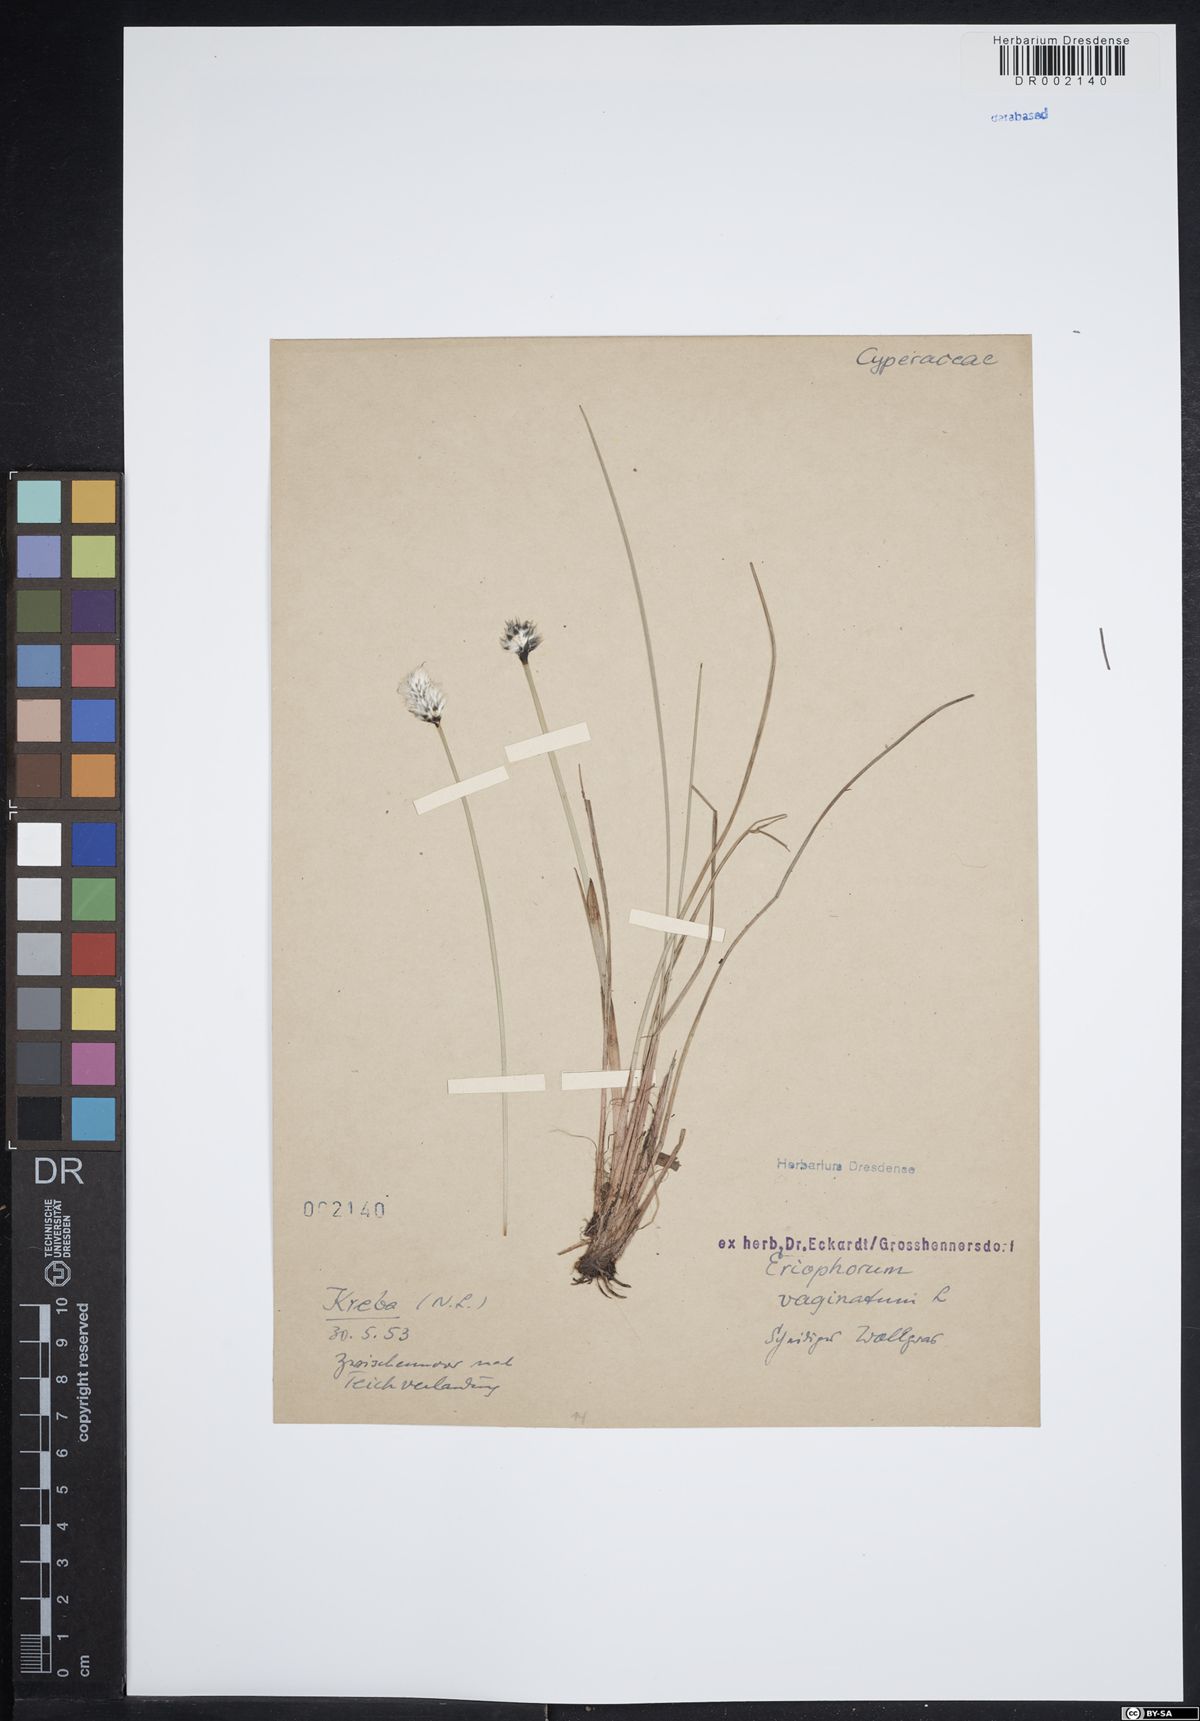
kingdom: Plantae
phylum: Tracheophyta
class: Liliopsida
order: Poales
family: Cyperaceae
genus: Eriophorum
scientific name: Eriophorum vaginatum
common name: Hare's-tail cottongrass
